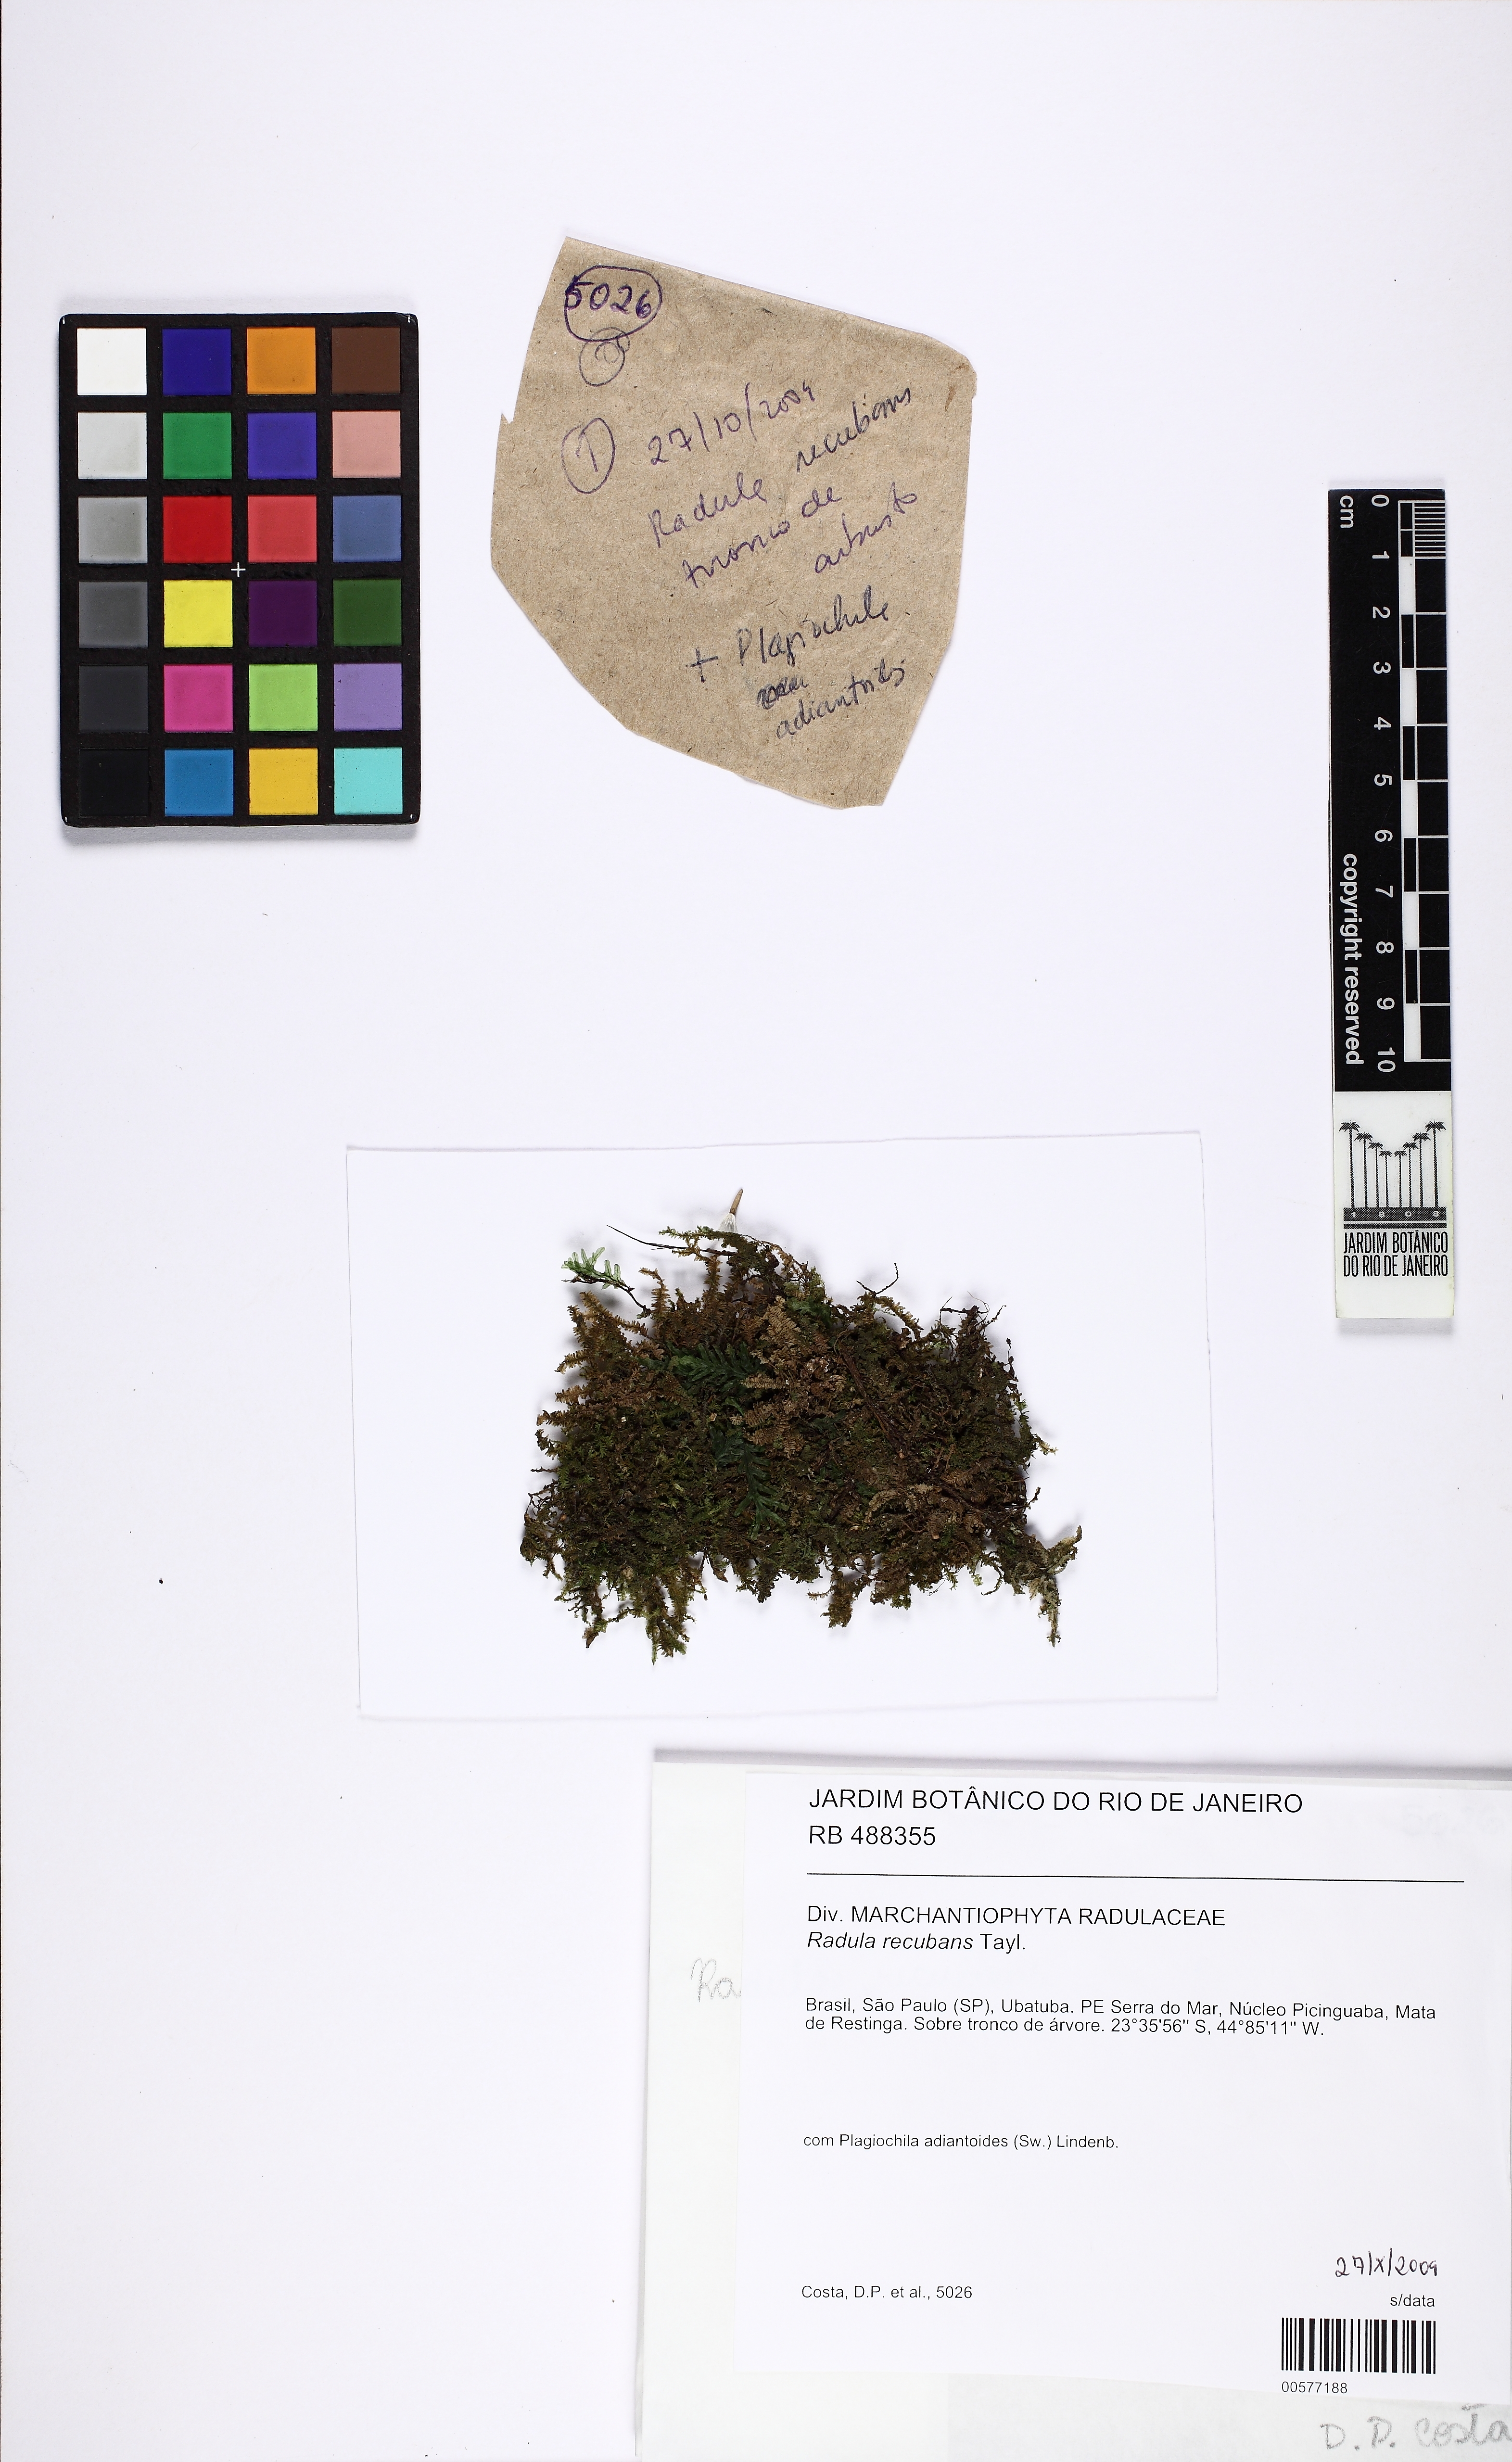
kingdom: Plantae
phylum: Marchantiophyta
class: Jungermanniopsida
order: Porellales
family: Radulaceae
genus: Radula
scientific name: Radula recubans
